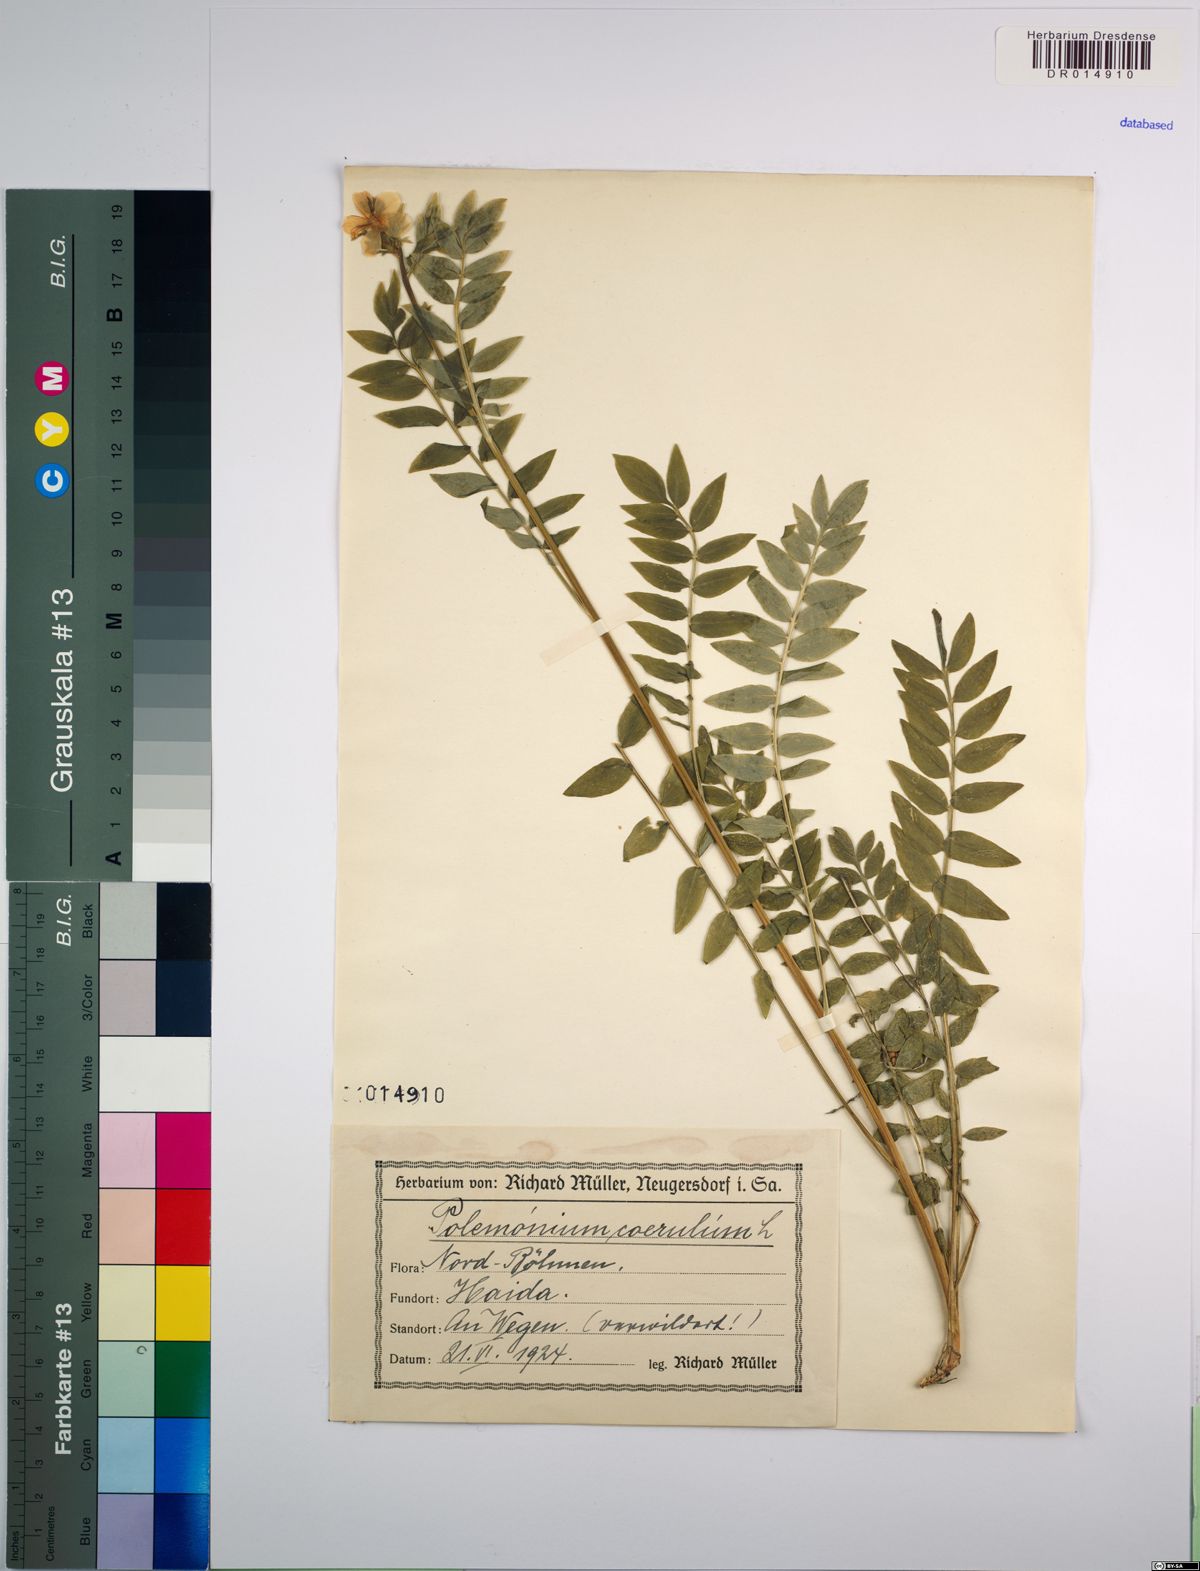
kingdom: Plantae
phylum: Tracheophyta
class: Magnoliopsida
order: Ericales
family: Polemoniaceae
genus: Polemonium
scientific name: Polemonium caeruleum
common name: Jacob's-ladder
